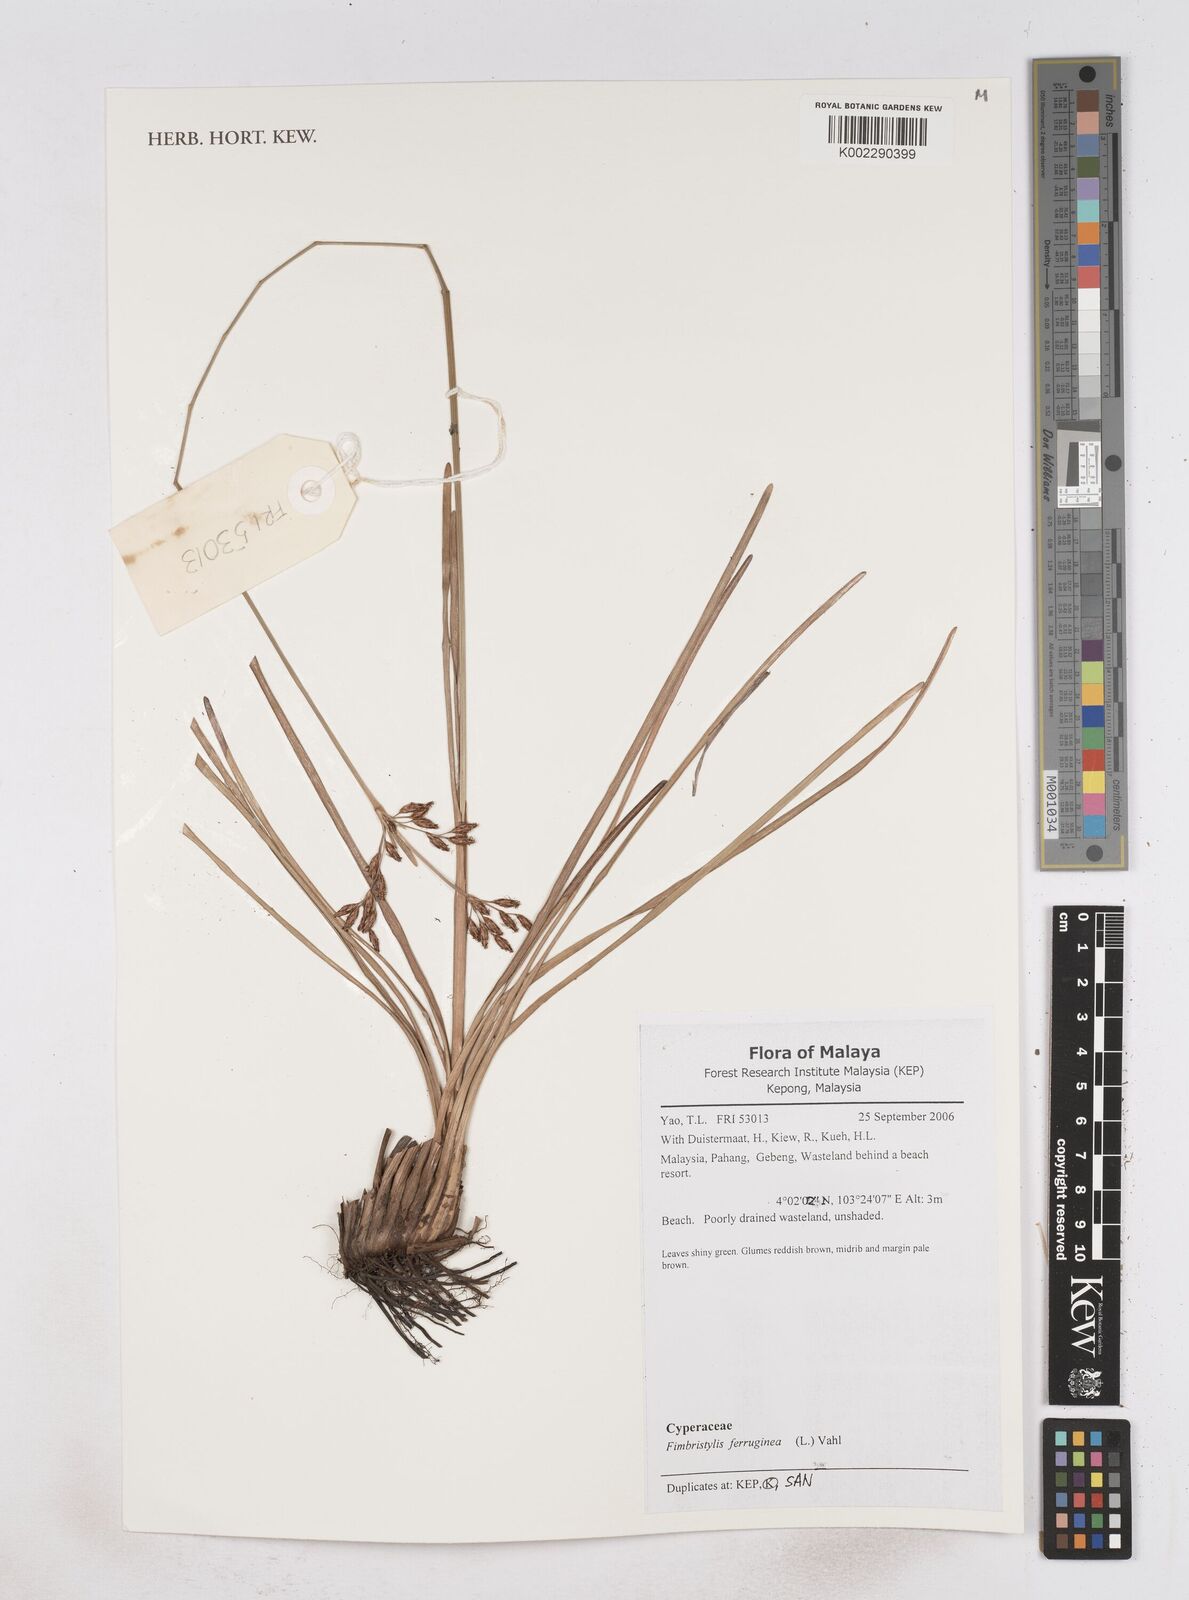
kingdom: Plantae
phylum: Tracheophyta
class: Liliopsida
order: Poales
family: Cyperaceae
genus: Fimbristylis
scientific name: Fimbristylis ferruginea
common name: West indian fimbry
